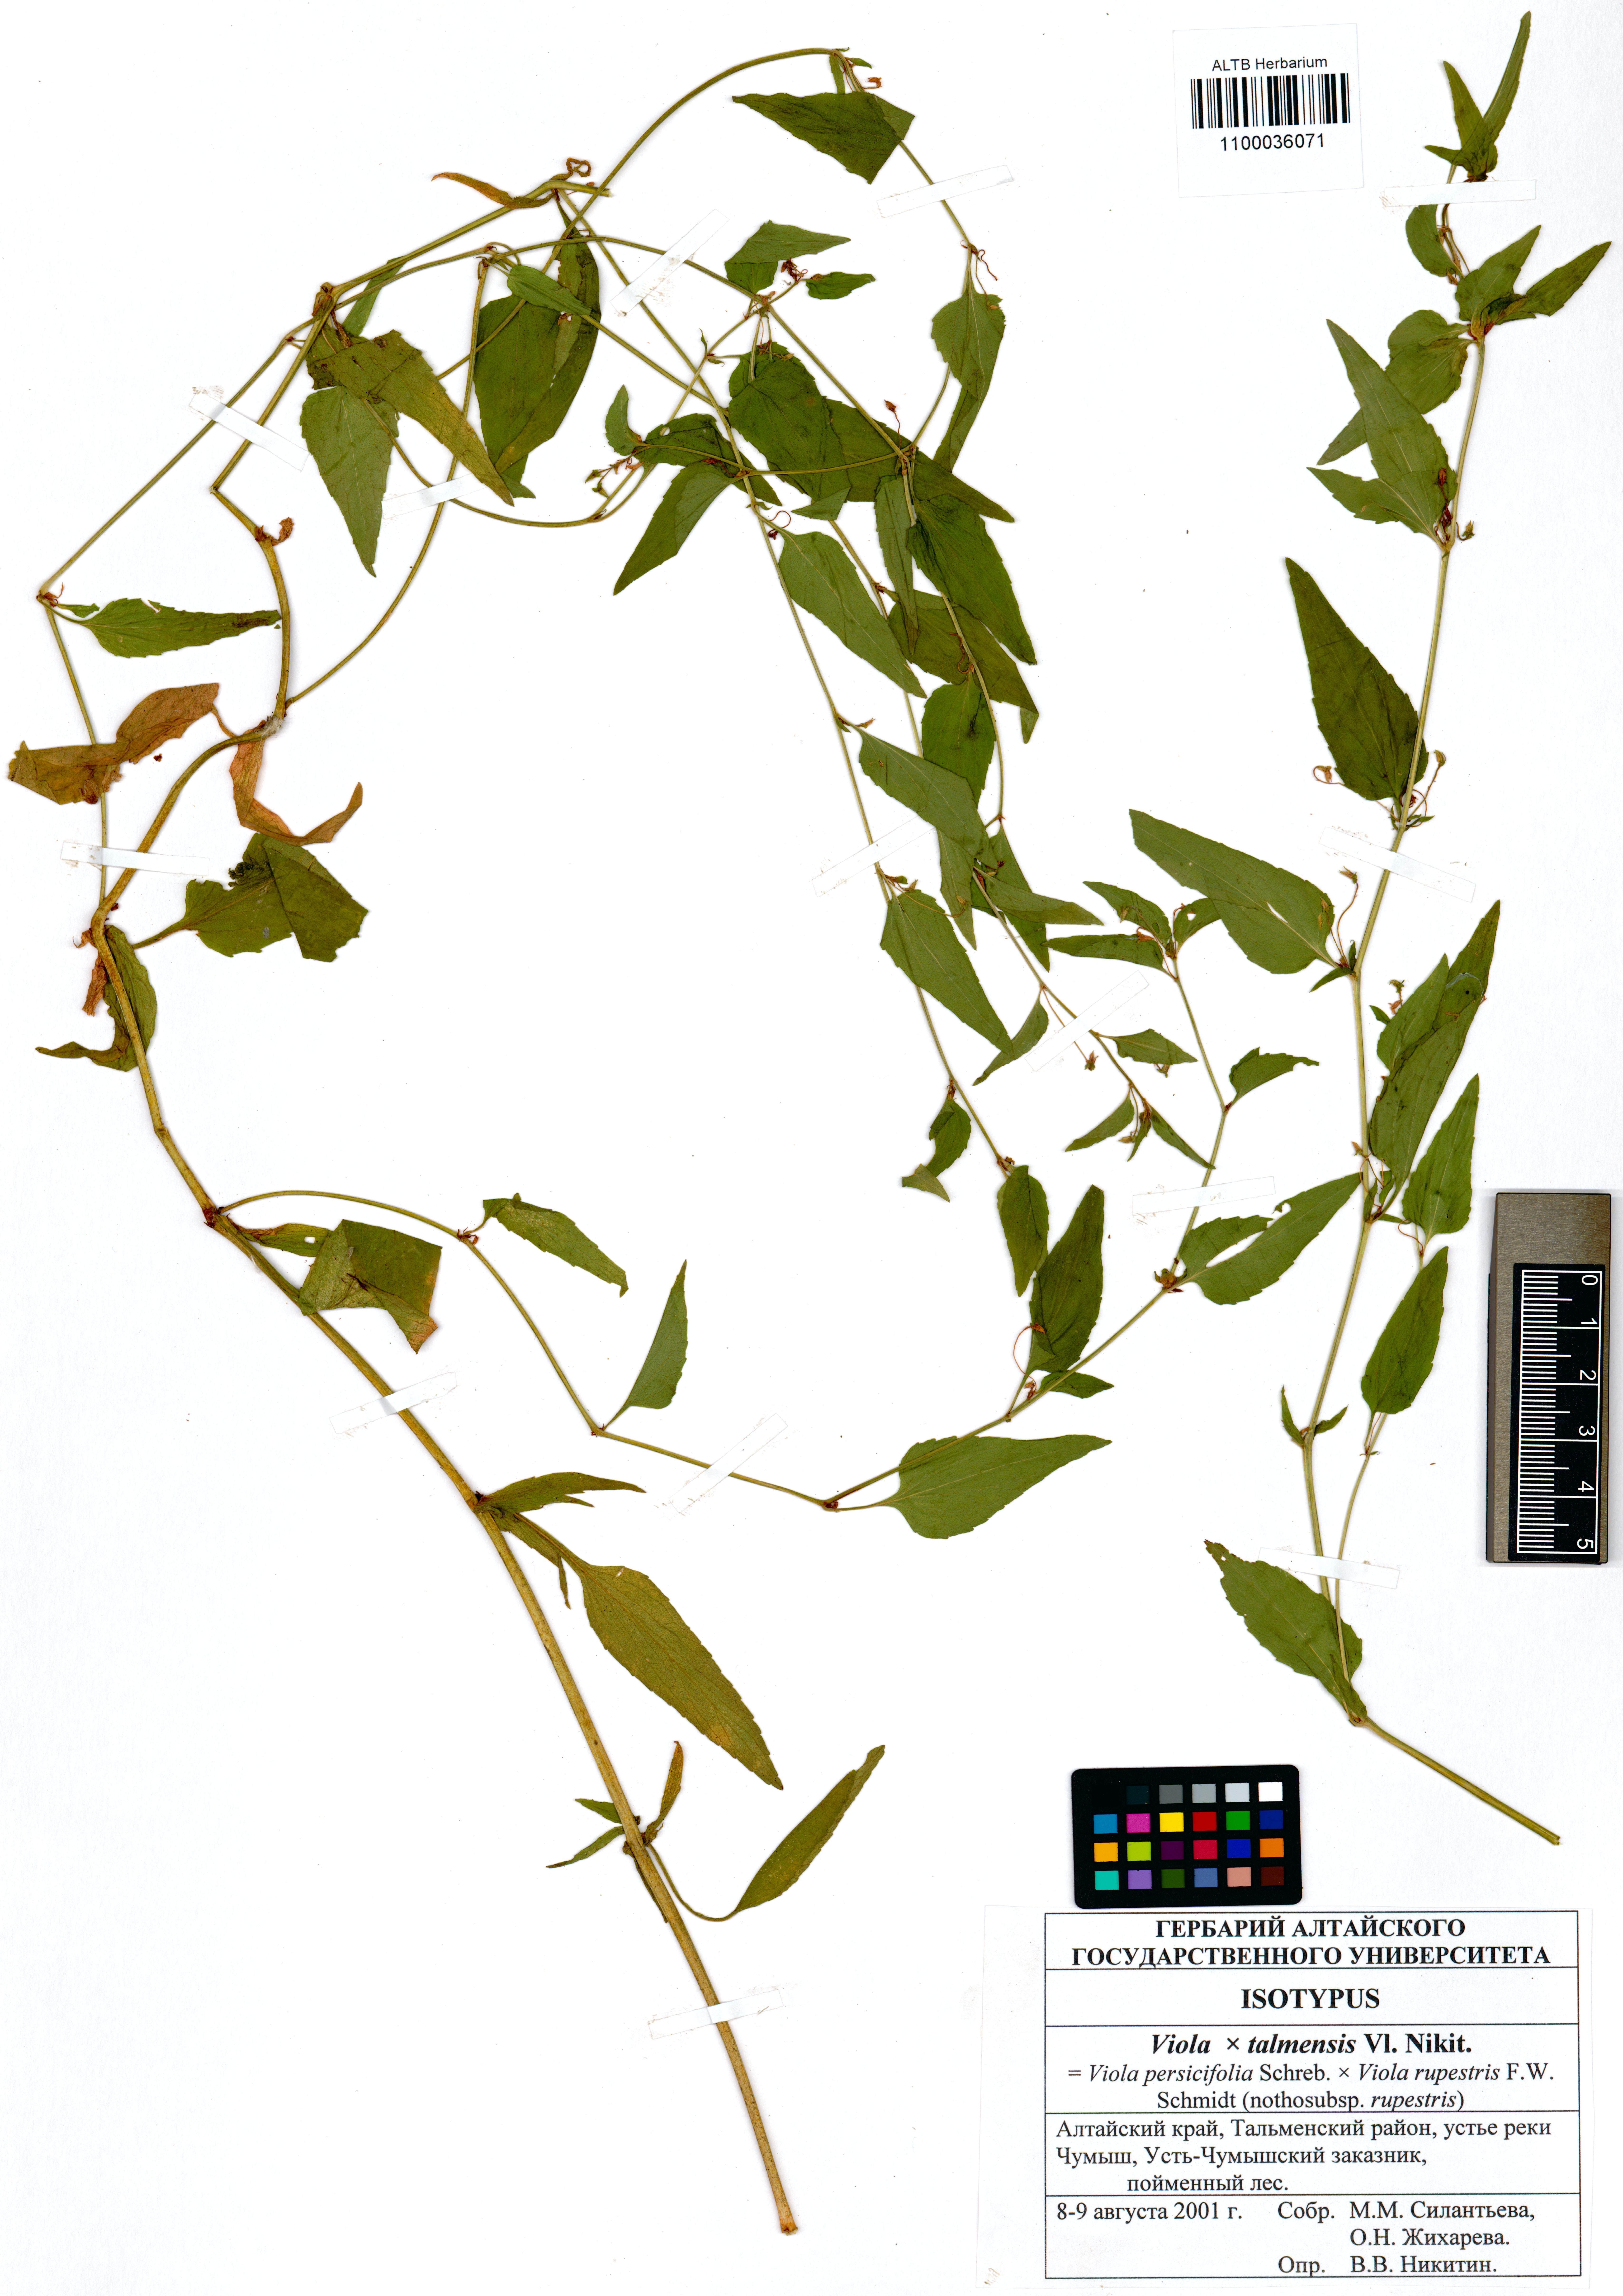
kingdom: Plantae
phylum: Tracheophyta
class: Magnoliopsida
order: Malpighiales
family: Violaceae
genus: Viola
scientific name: Viola vilnaensis
